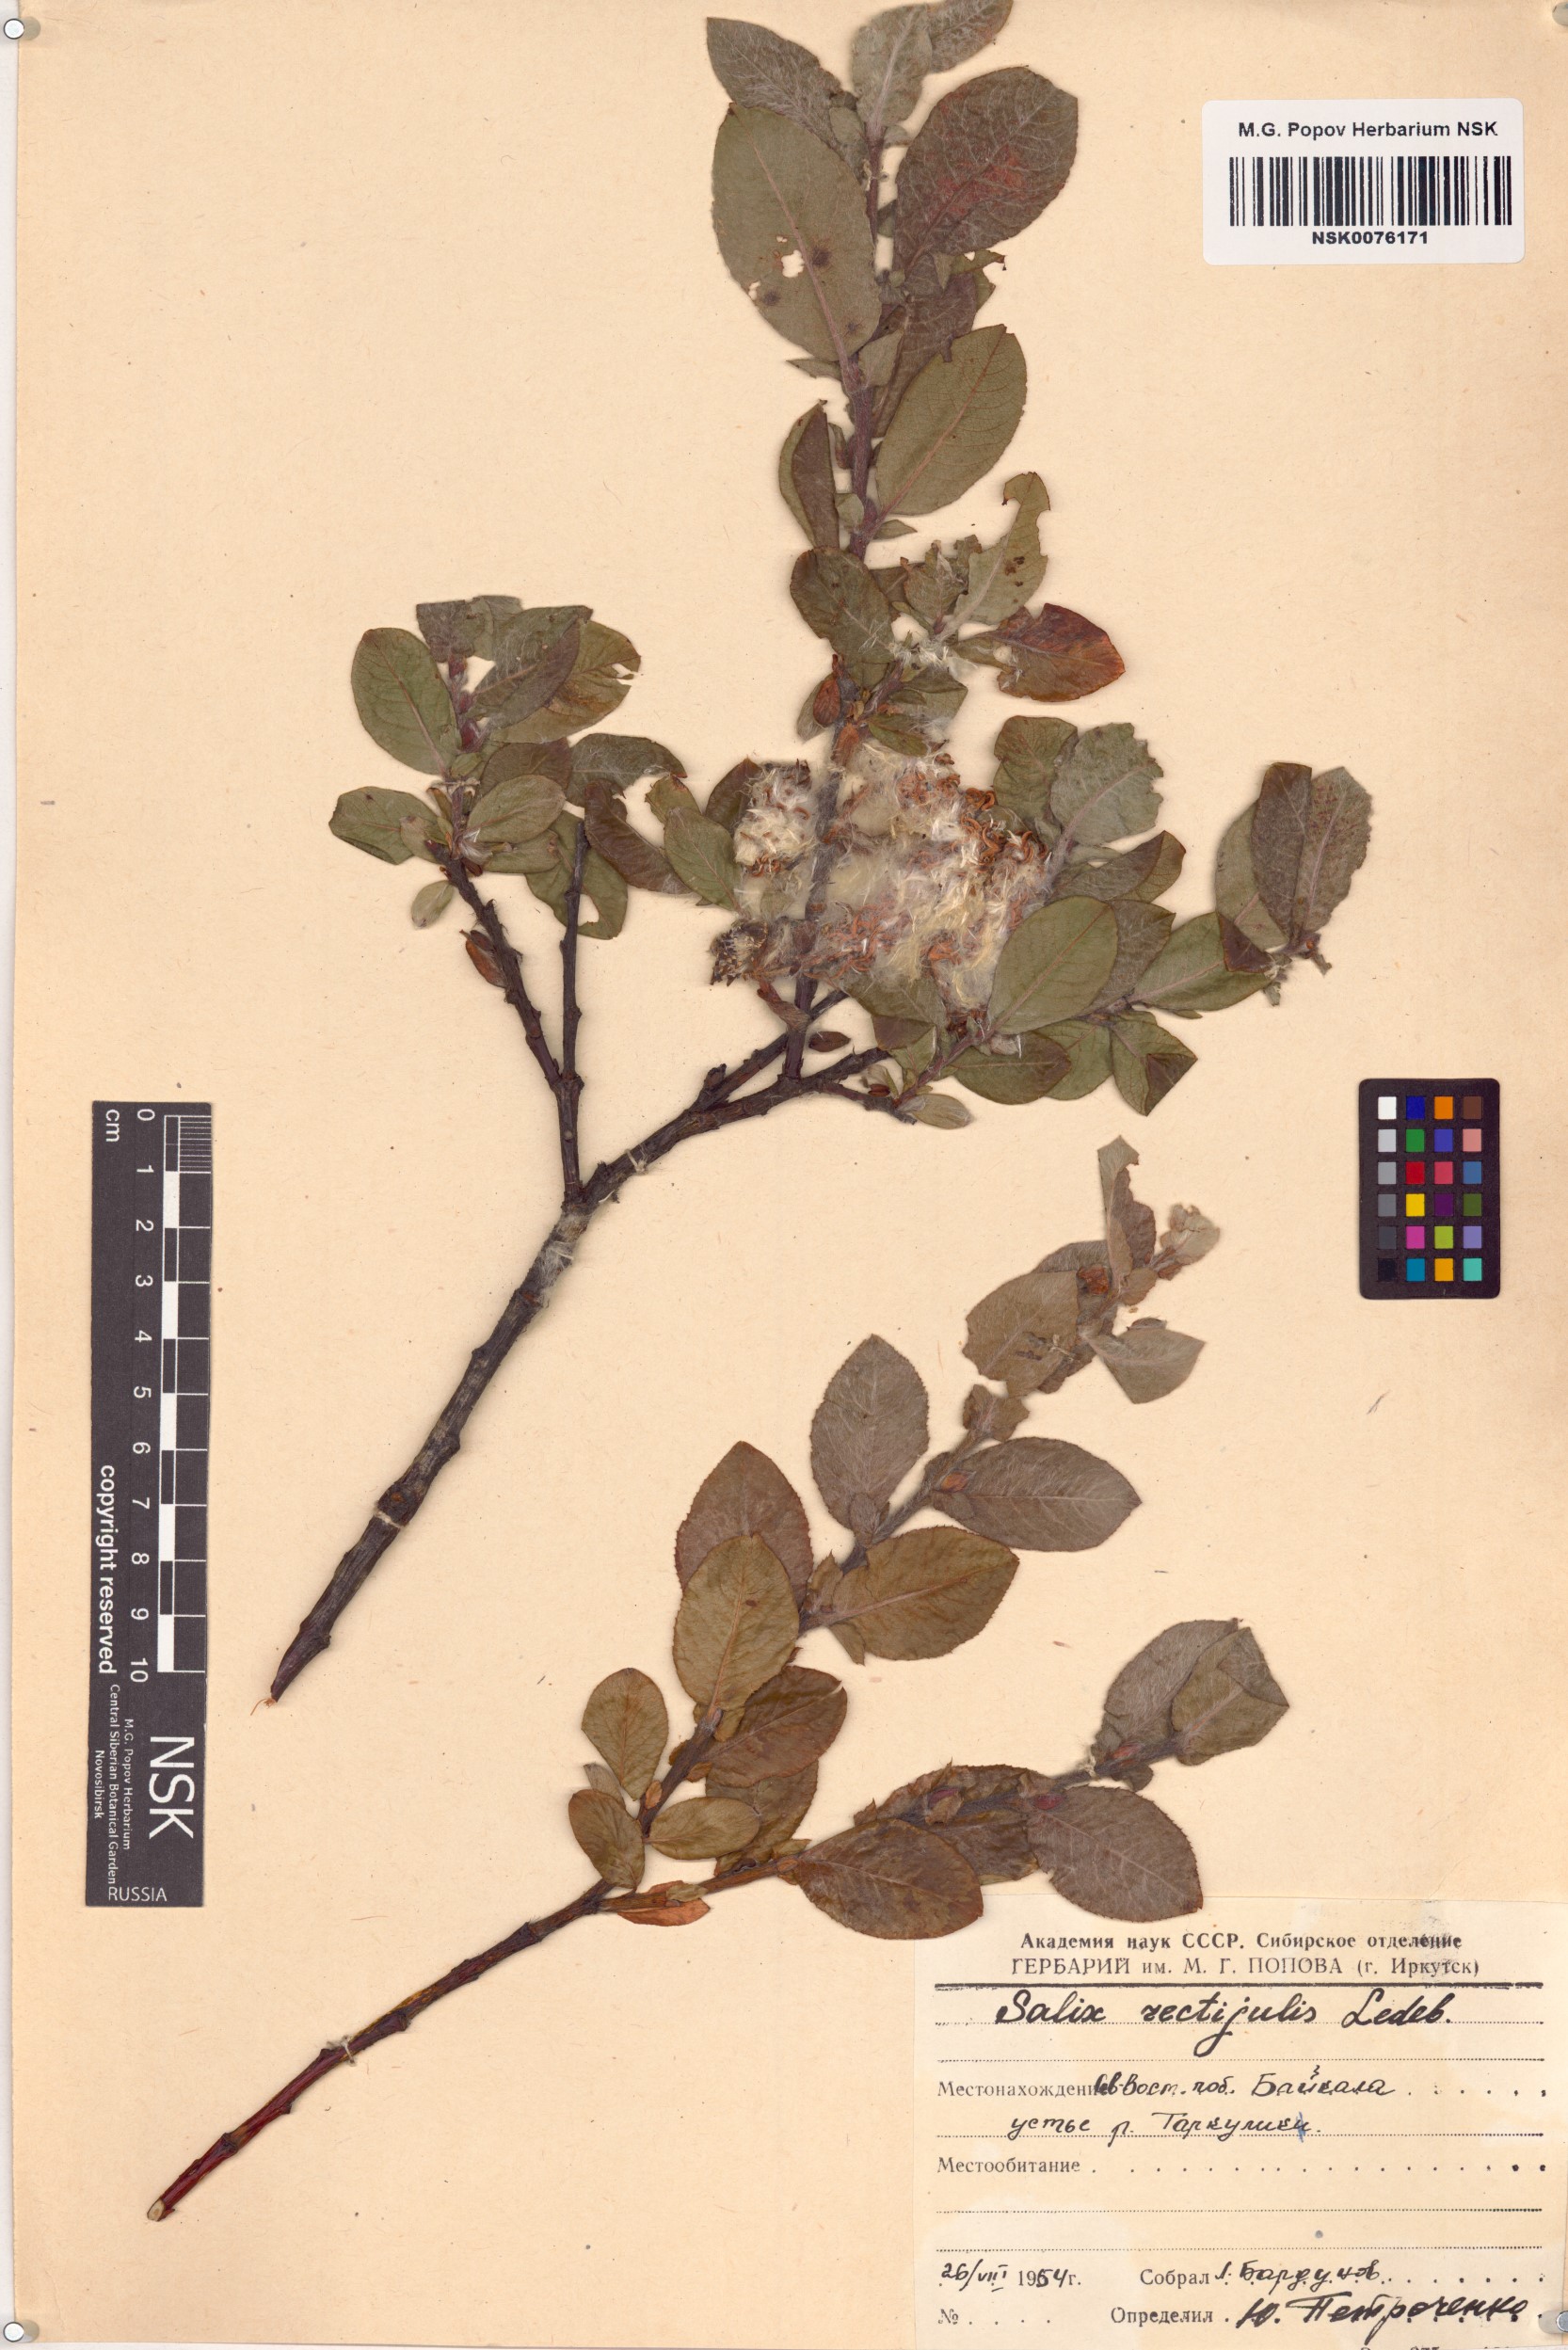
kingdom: Plantae
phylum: Tracheophyta
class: Magnoliopsida
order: Malpighiales
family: Salicaceae
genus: Salix
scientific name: Salix rectijulis
